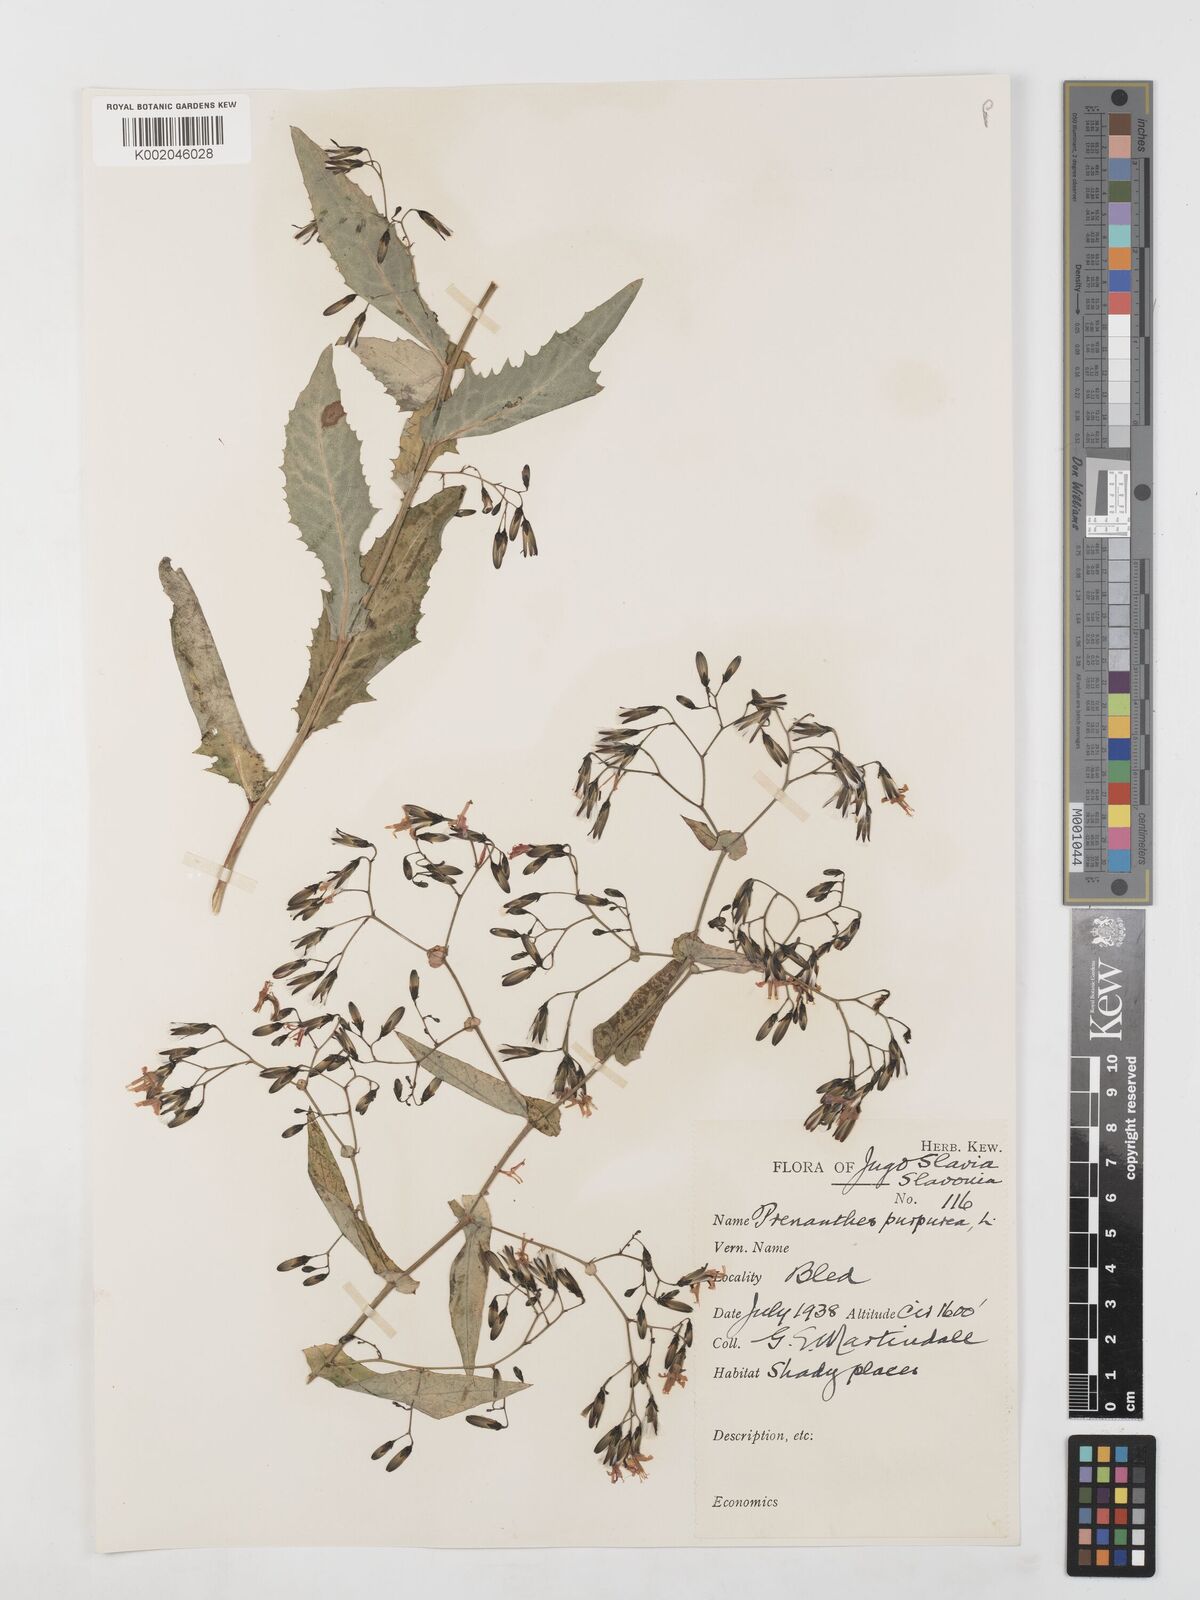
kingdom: Plantae
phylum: Tracheophyta
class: Magnoliopsida
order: Asterales
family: Asteraceae
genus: Prenanthes
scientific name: Prenanthes purpurea
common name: Purple lettuce
